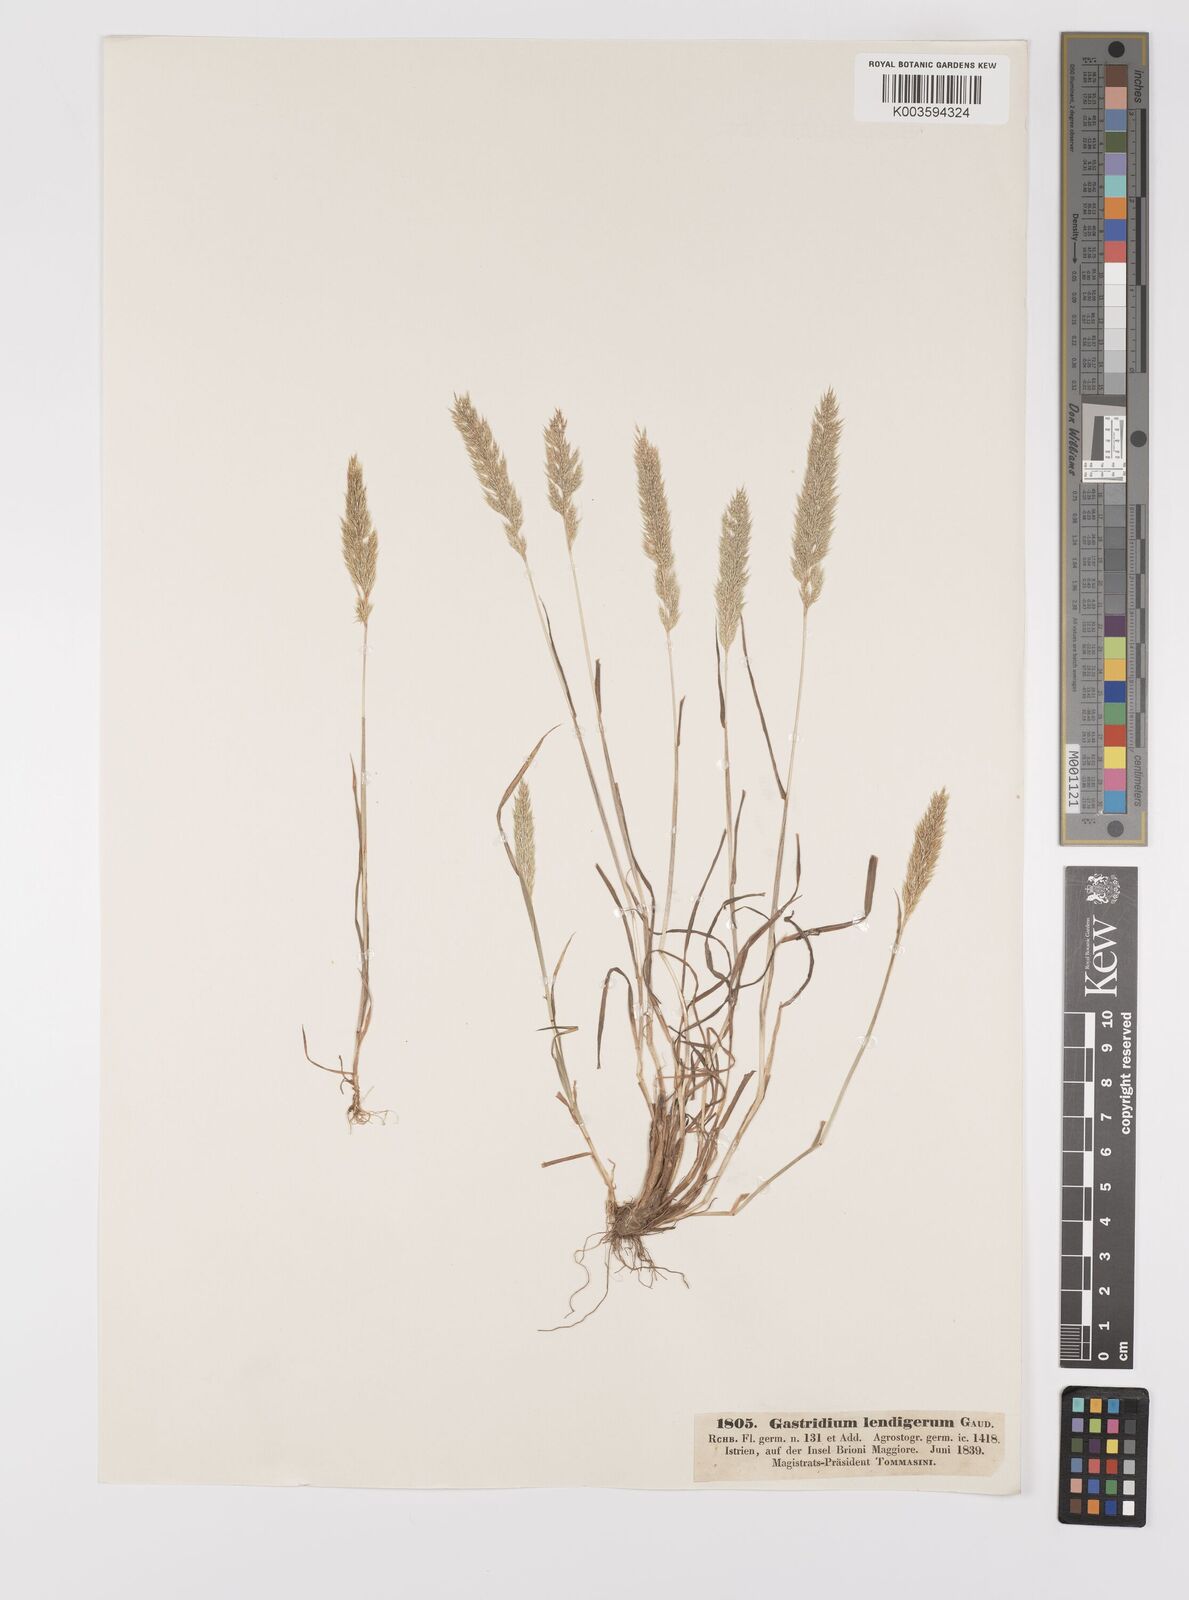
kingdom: Plantae
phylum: Tracheophyta
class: Liliopsida
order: Poales
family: Poaceae
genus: Gastridium
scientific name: Gastridium ventricosum
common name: Nit-grass
